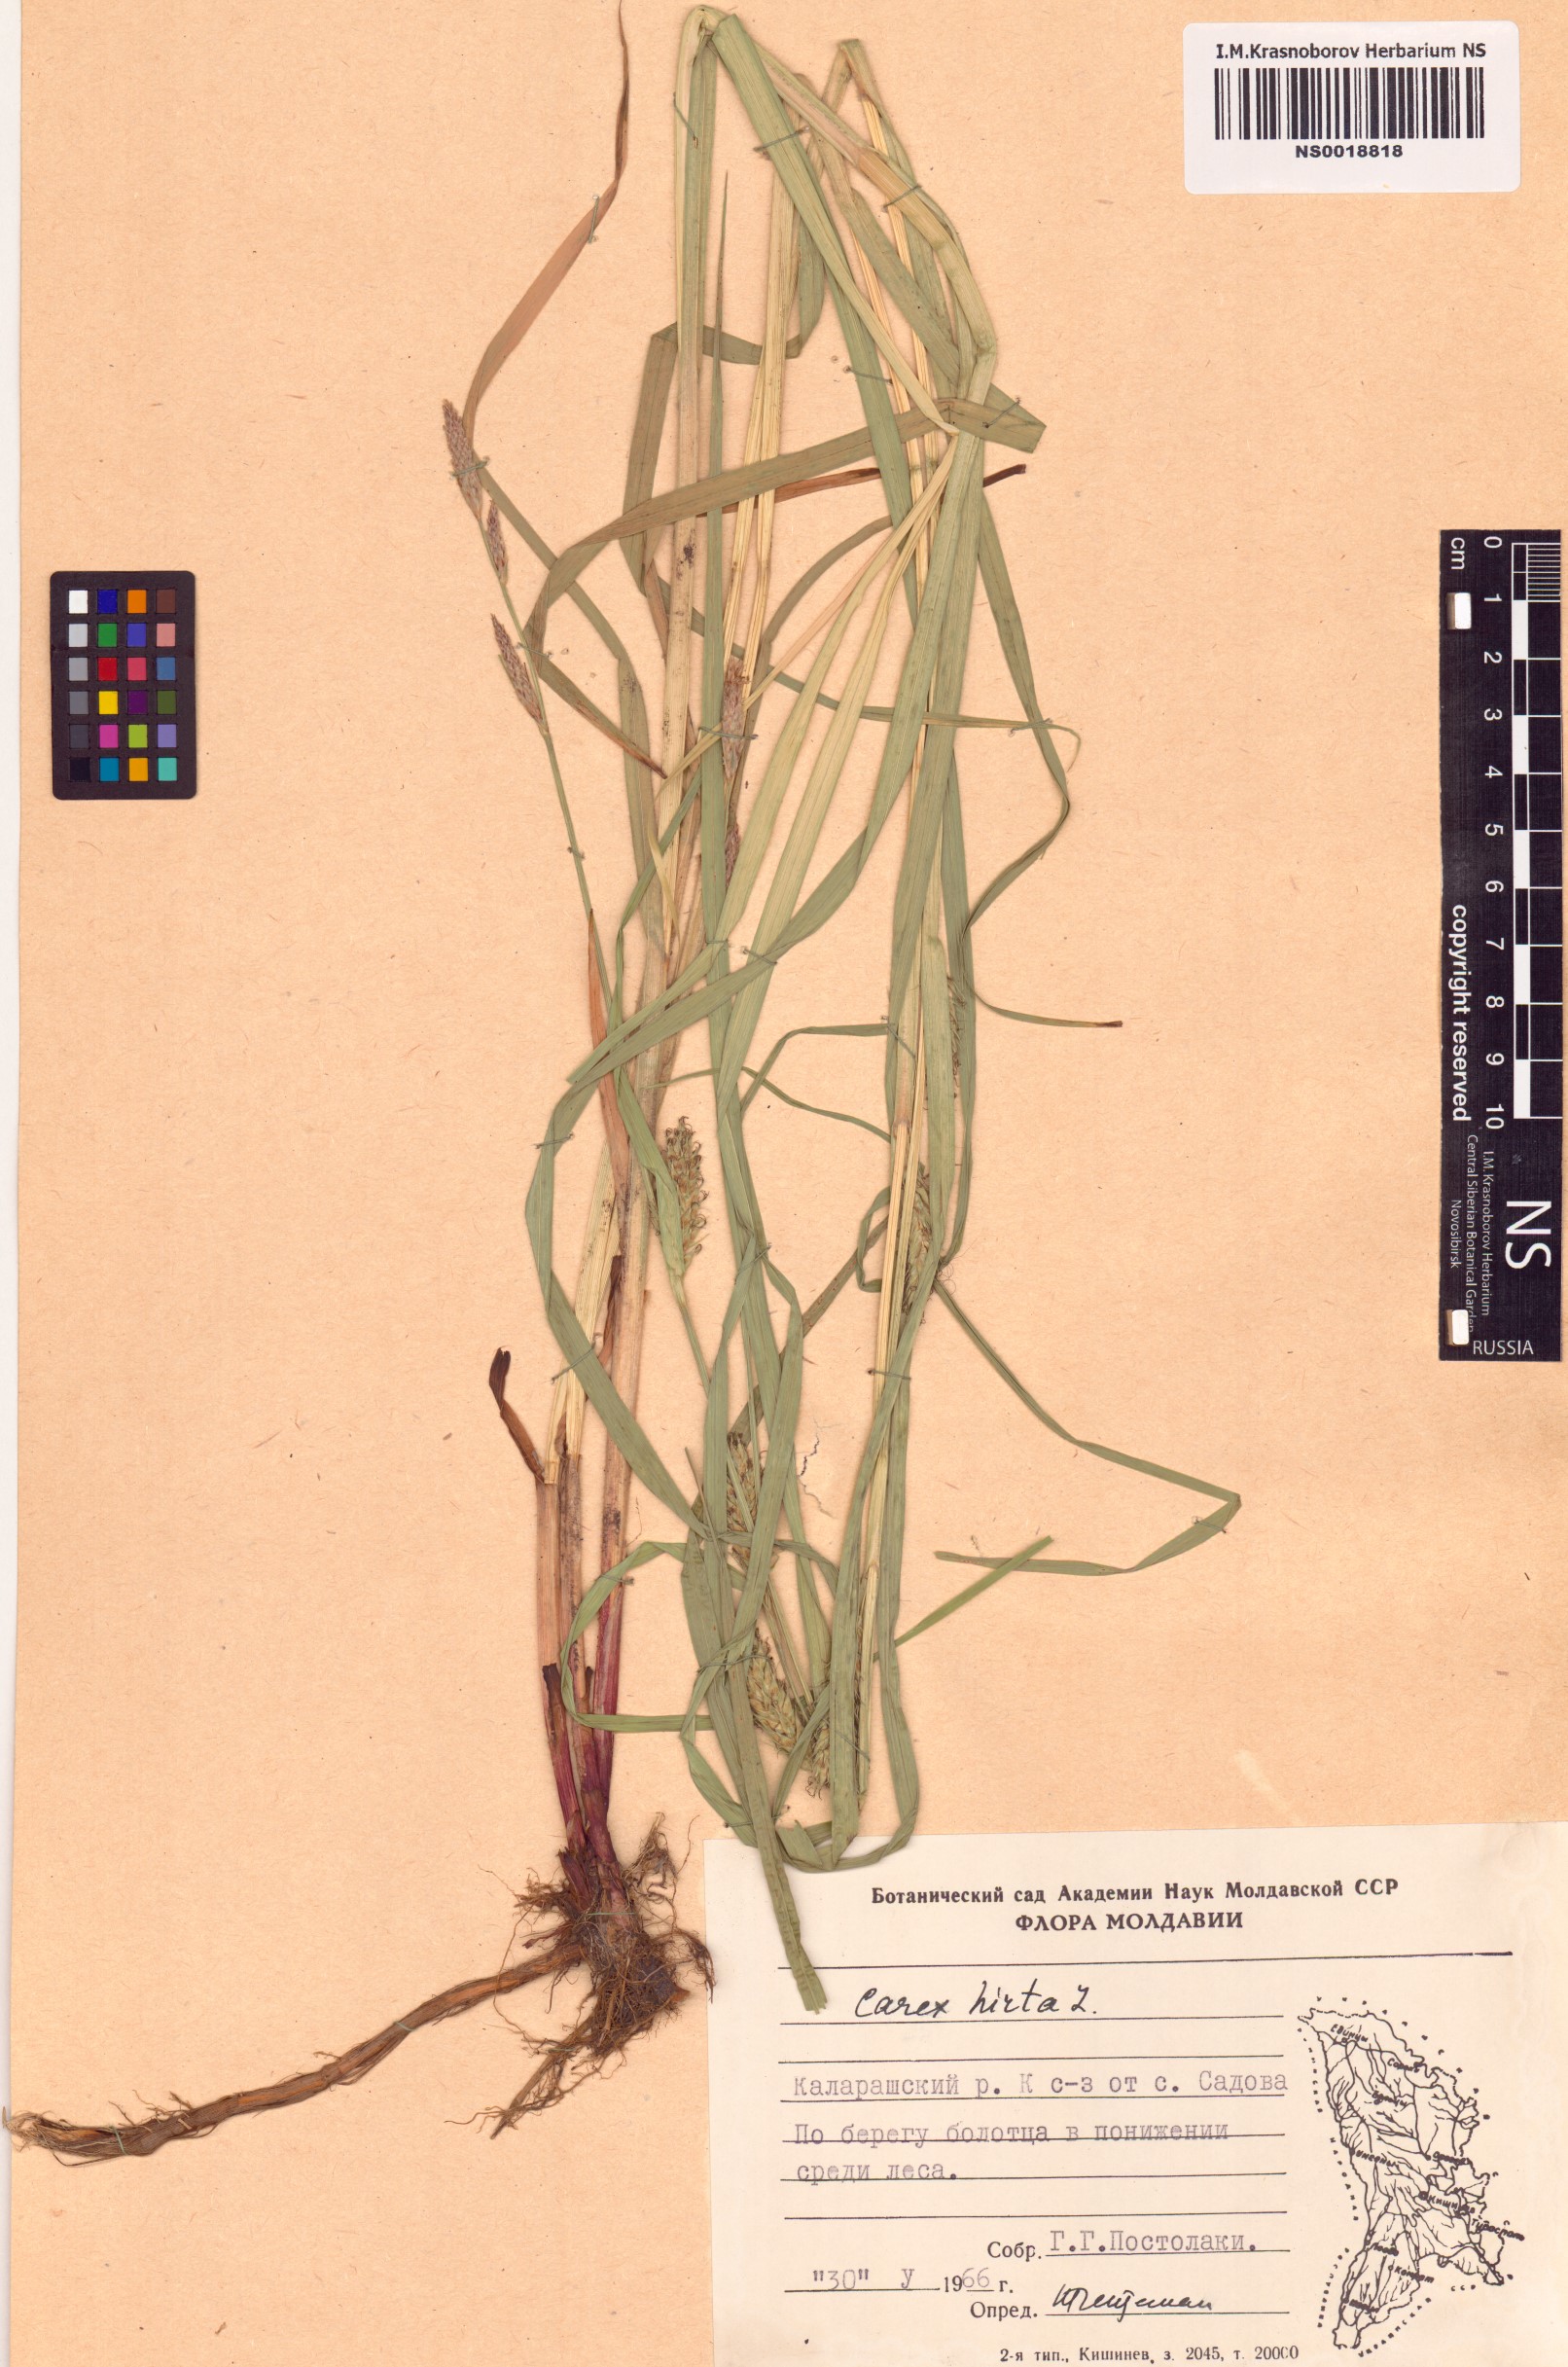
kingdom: Plantae
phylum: Tracheophyta
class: Liliopsida
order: Poales
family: Cyperaceae
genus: Carex
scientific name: Carex hirta
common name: Hairy sedge
